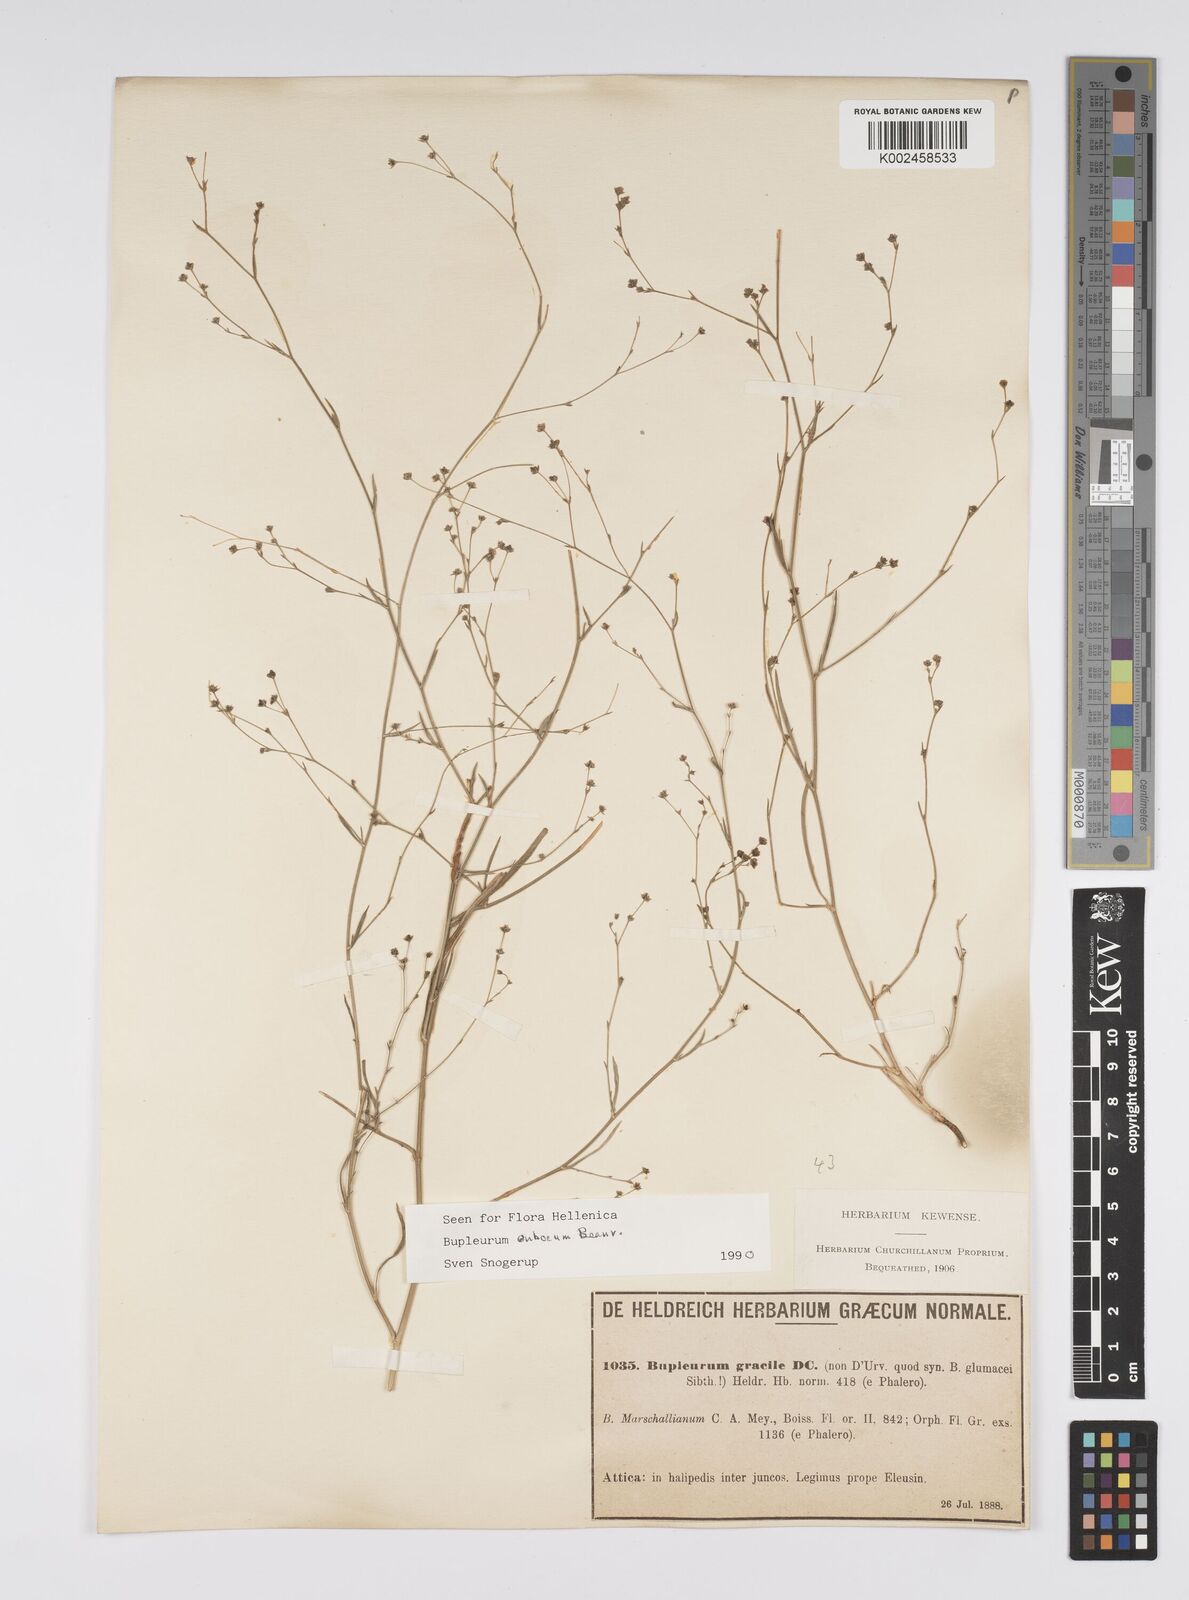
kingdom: Plantae
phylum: Tracheophyta
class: Magnoliopsida
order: Apiales
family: Apiaceae
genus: Bupleurum
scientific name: Bupleurum tenuissimum
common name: Slender hare's-ear
